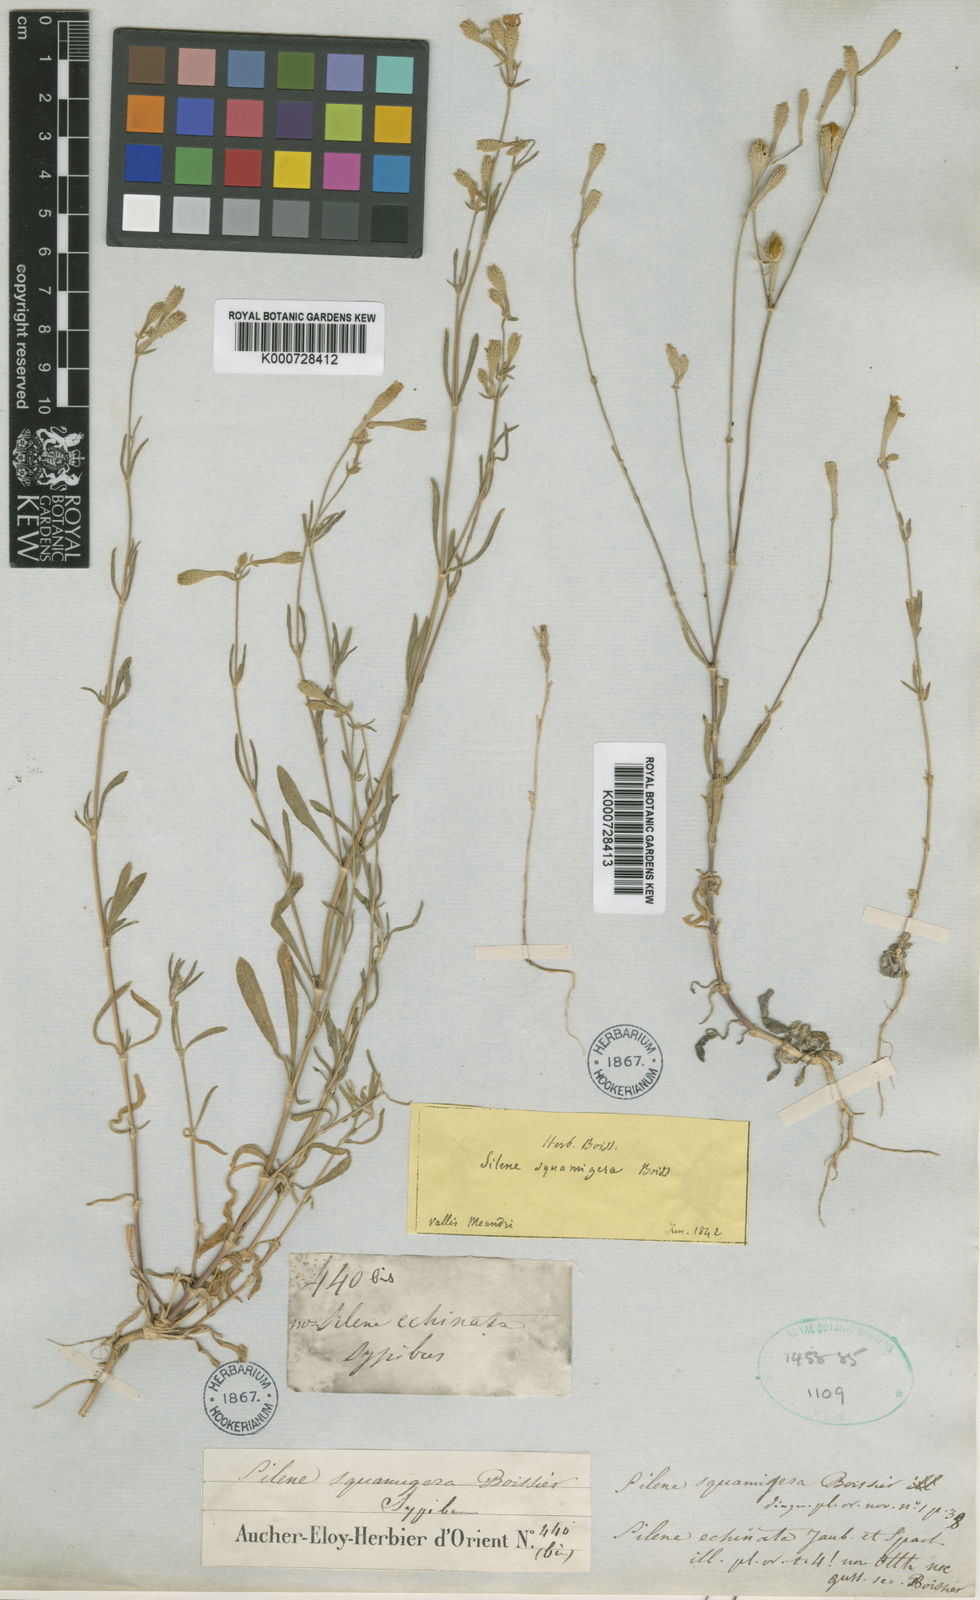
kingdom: Plantae
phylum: Tracheophyta
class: Magnoliopsida
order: Caryophyllales
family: Caryophyllaceae
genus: Silene
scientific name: Silene squamigera
